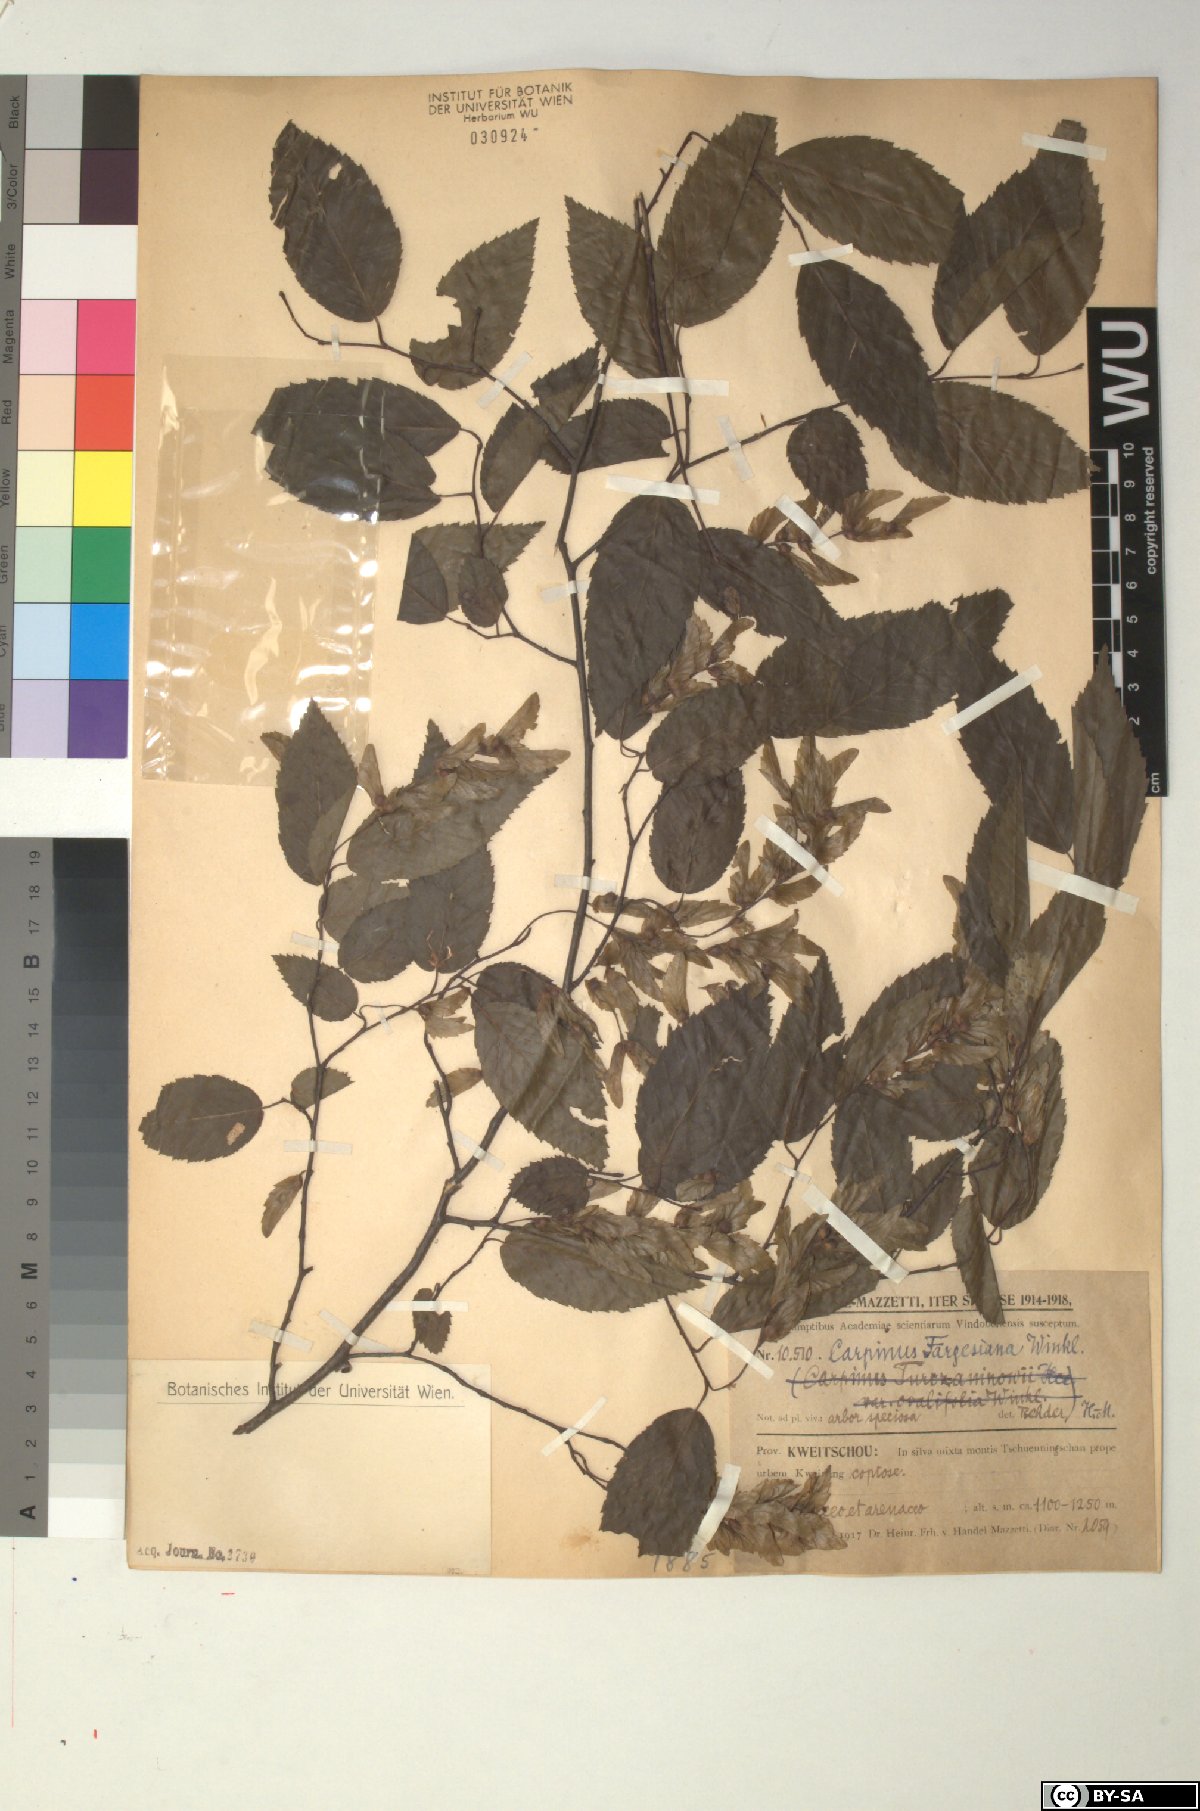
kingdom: Plantae
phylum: Tracheophyta
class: Magnoliopsida
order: Fagales
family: Betulaceae
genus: Carpinus
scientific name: Carpinus fargesiana
